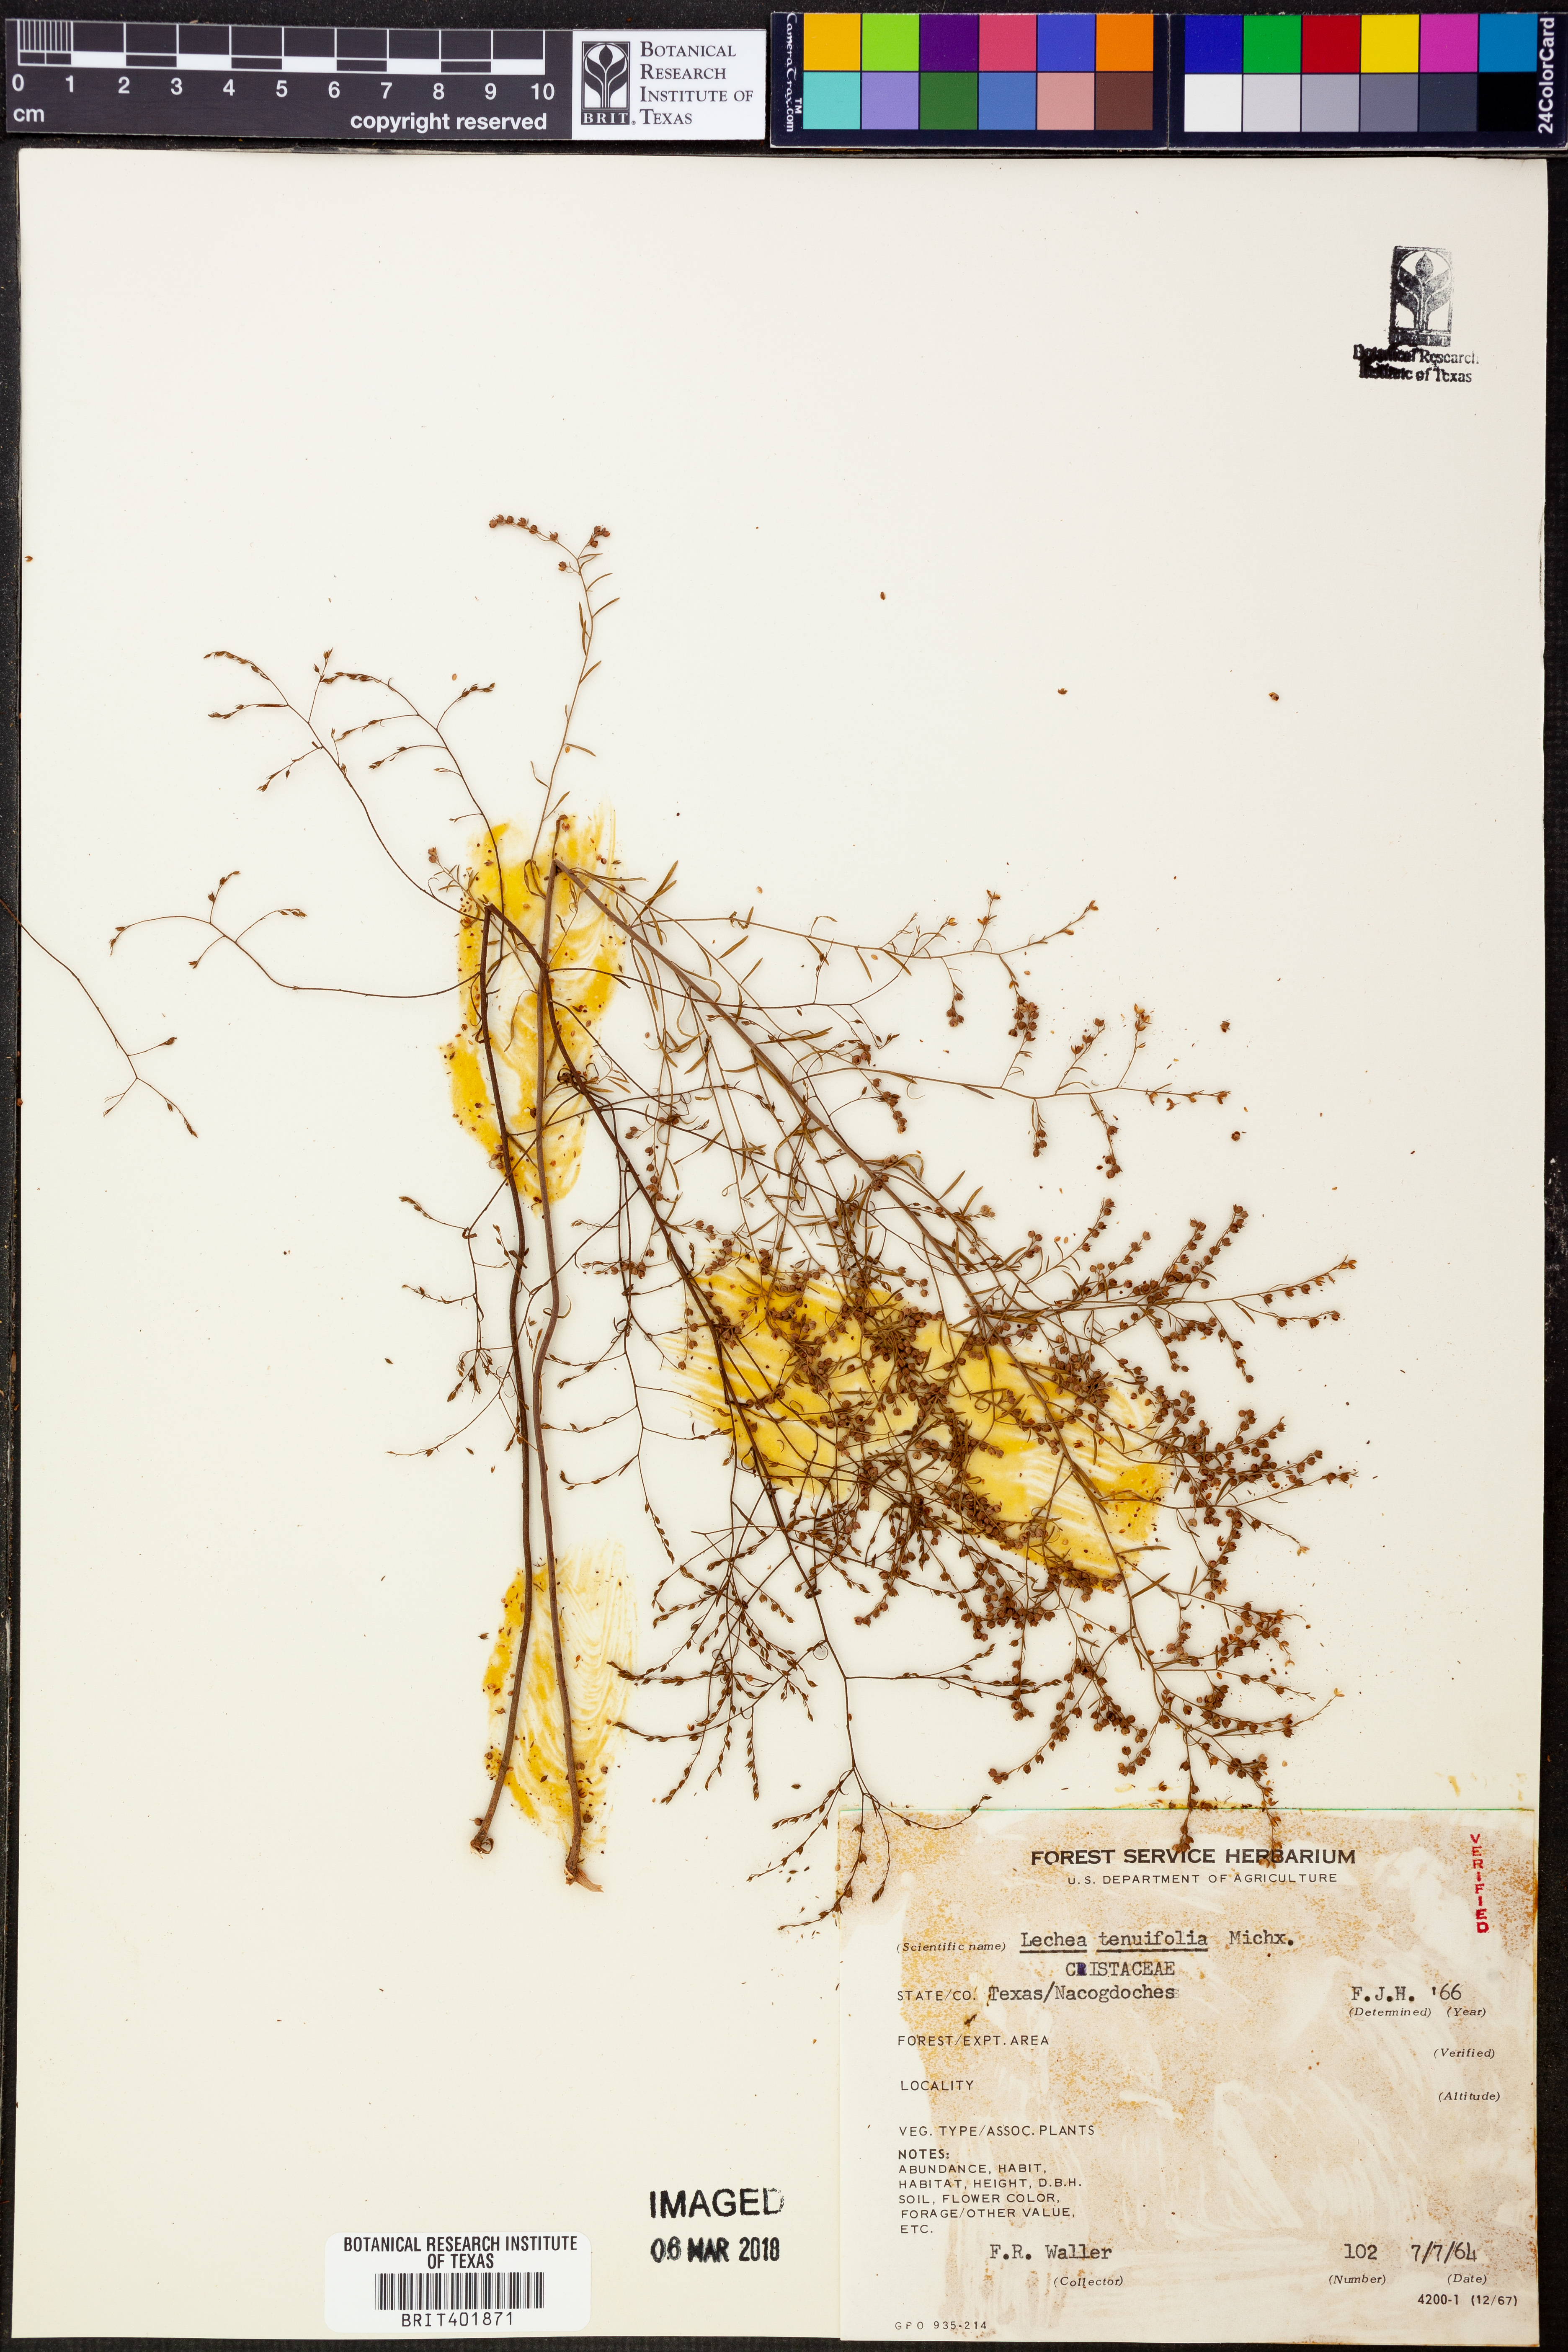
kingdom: Plantae
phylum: Tracheophyta
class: Magnoliopsida
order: Malvales
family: Cistaceae
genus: Lechea
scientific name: Lechea tenuifolia
